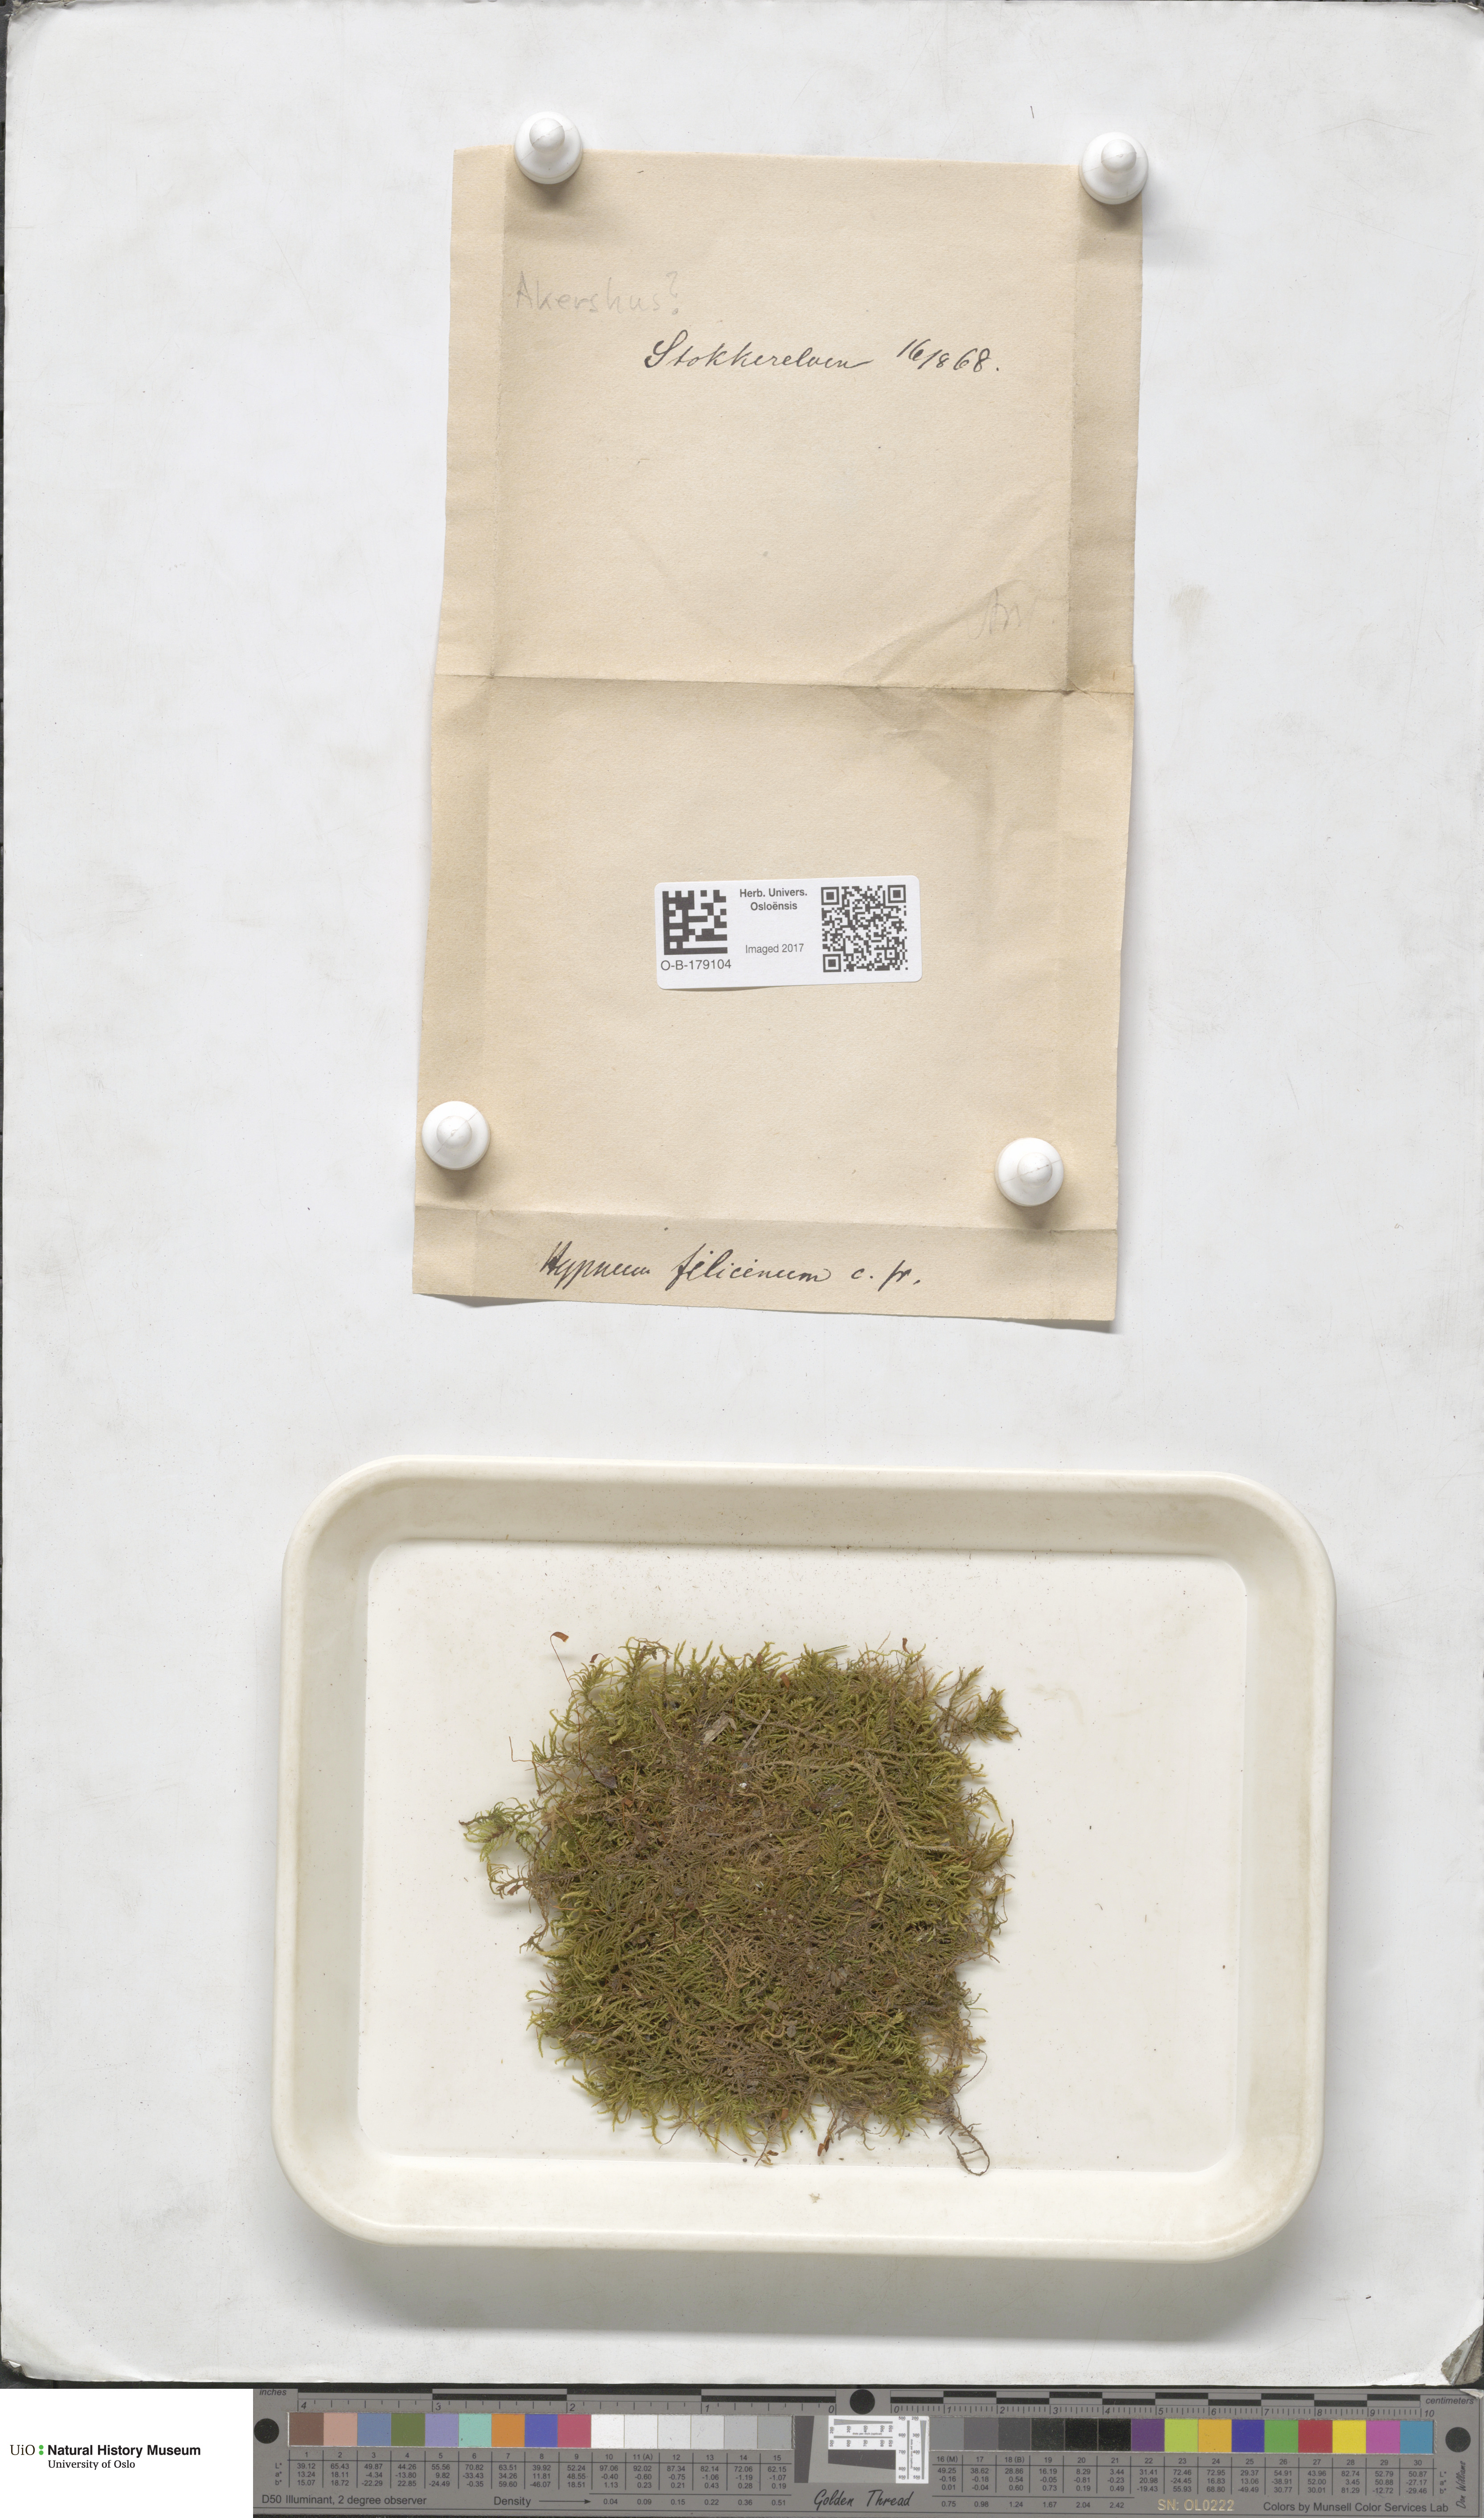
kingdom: Plantae
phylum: Bryophyta
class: Bryopsida
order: Hypnales
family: Amblystegiaceae
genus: Cratoneuron
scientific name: Cratoneuron filicinum
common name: Fern-leaved hook moss
